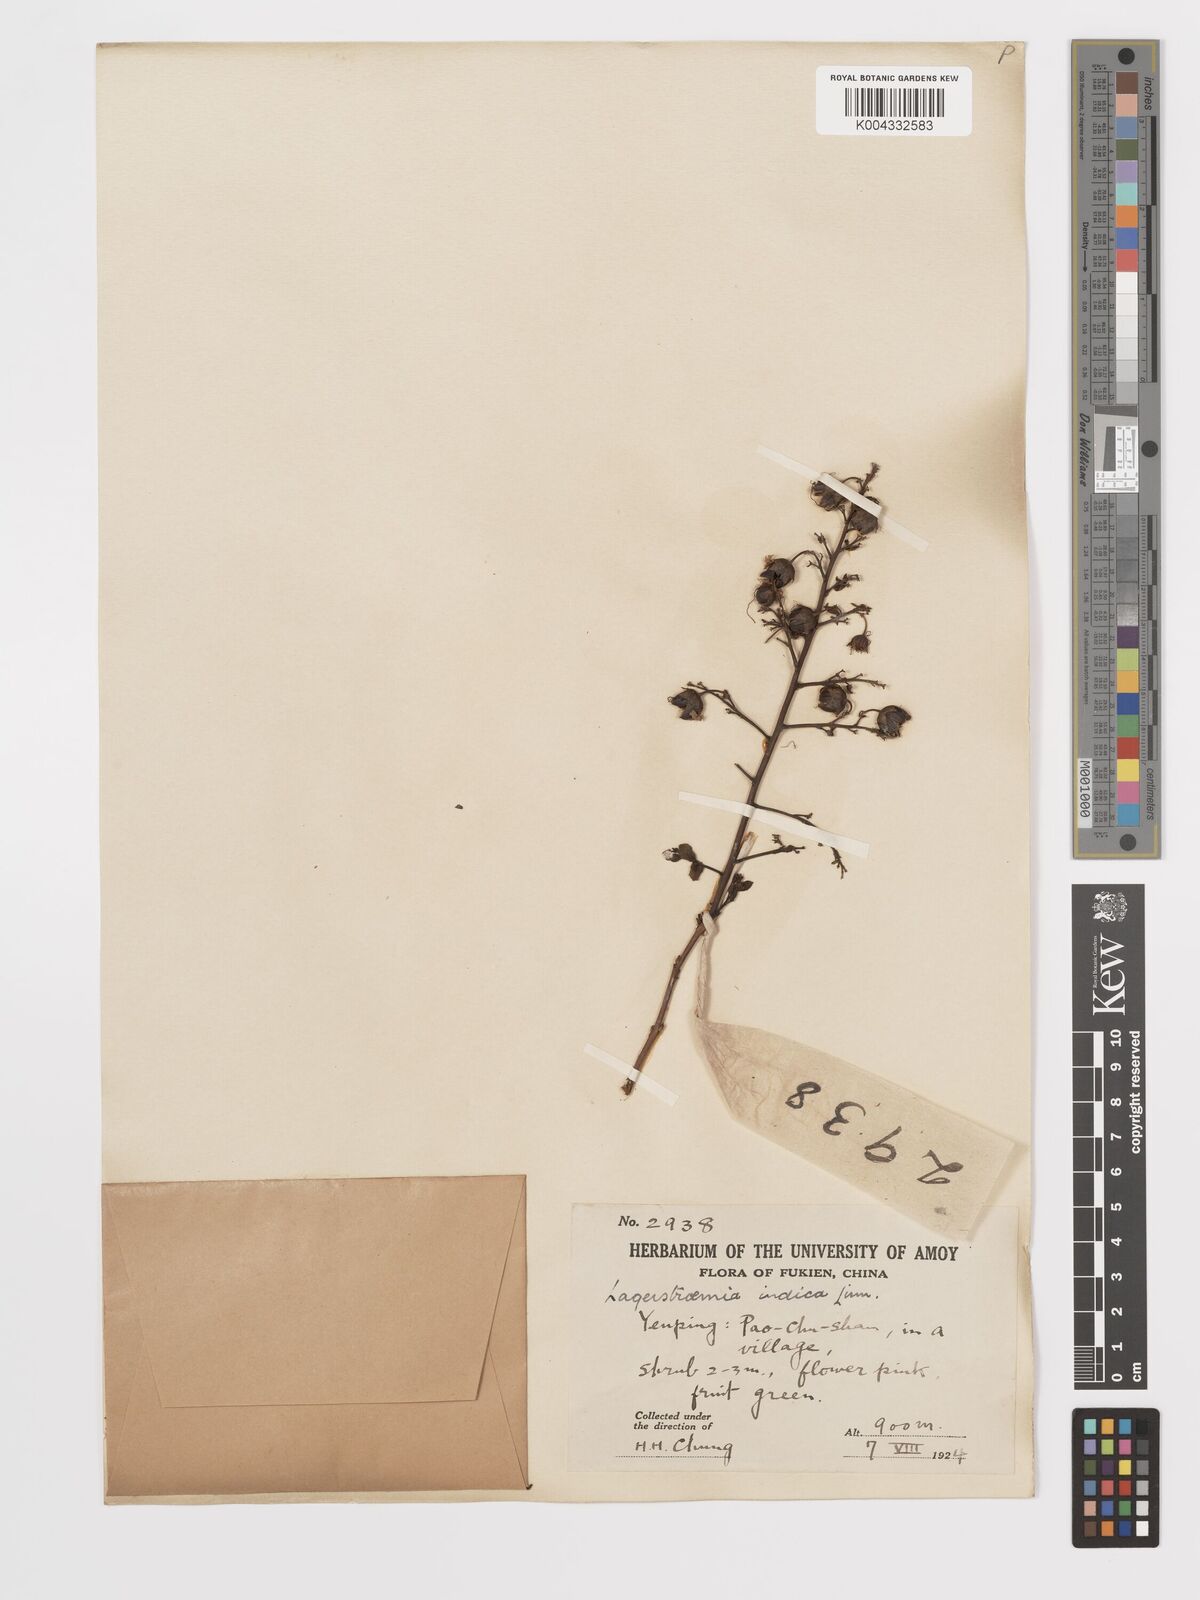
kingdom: Plantae
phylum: Tracheophyta
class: Magnoliopsida
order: Myrtales
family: Lythraceae
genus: Lagerstroemia
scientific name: Lagerstroemia indica
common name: Crape-myrtle
